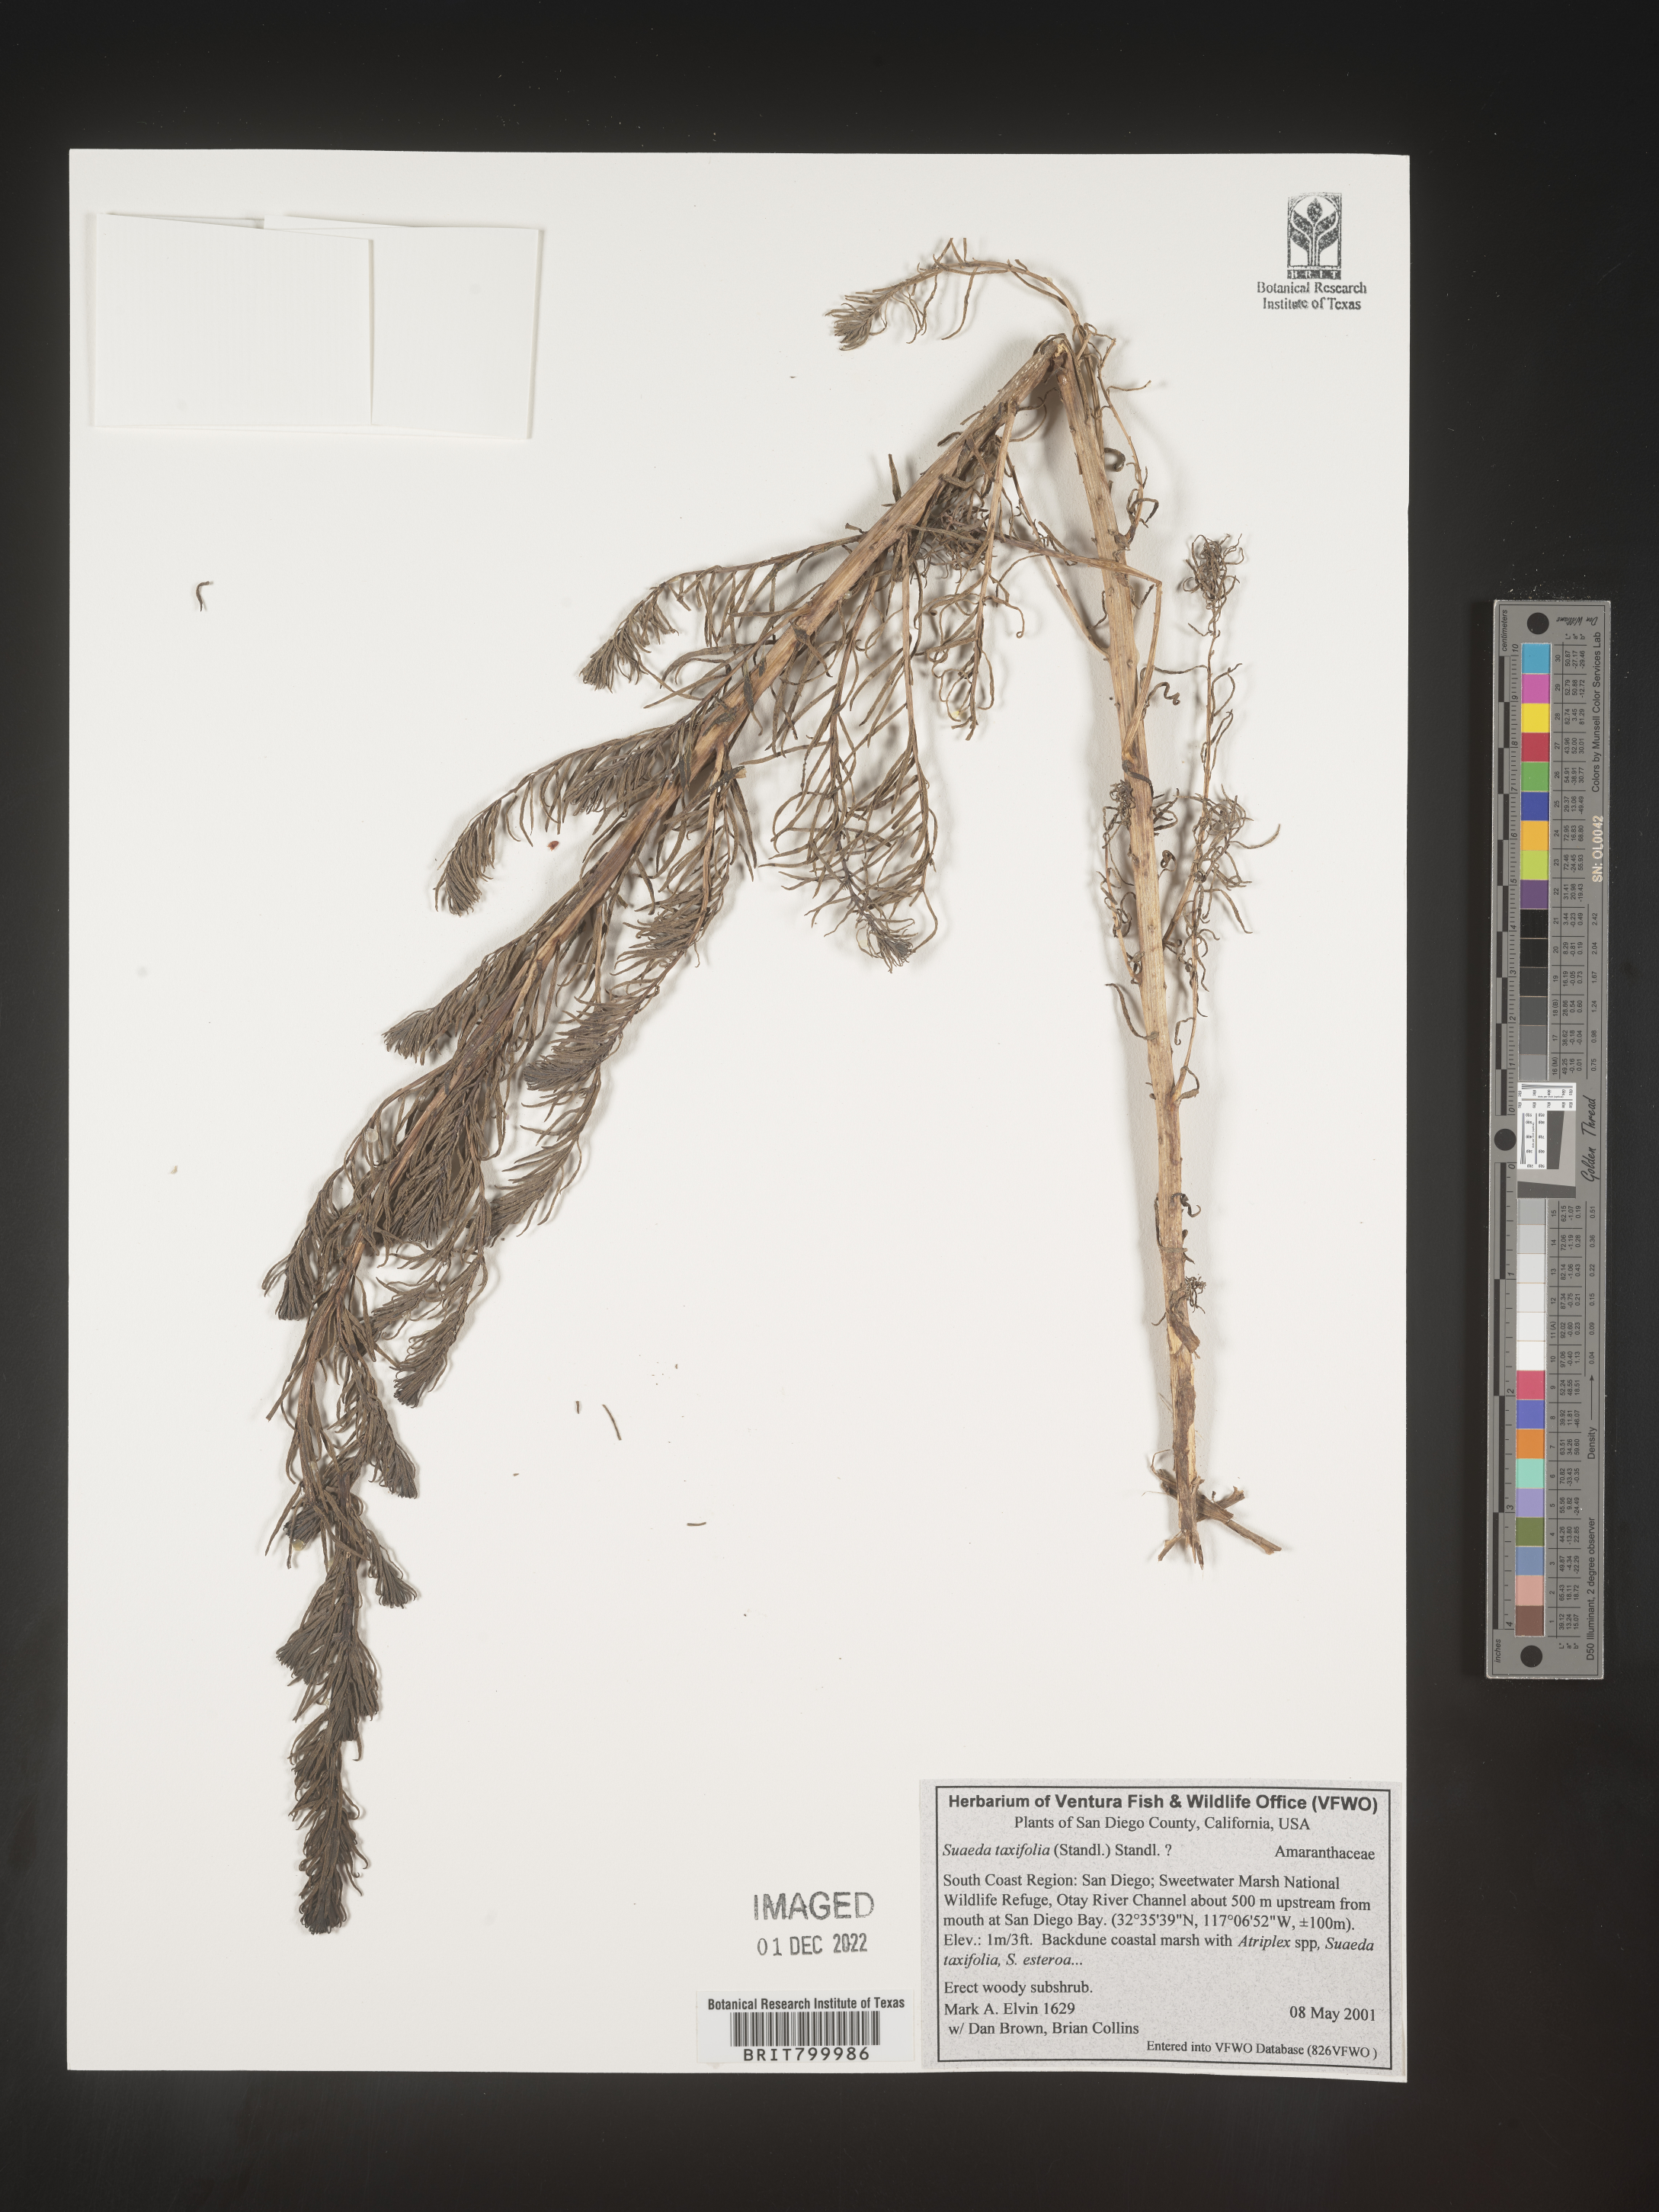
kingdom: Plantae
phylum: Tracheophyta
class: Magnoliopsida
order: Caryophyllales
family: Amaranthaceae
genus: Suaeda
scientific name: Suaeda
